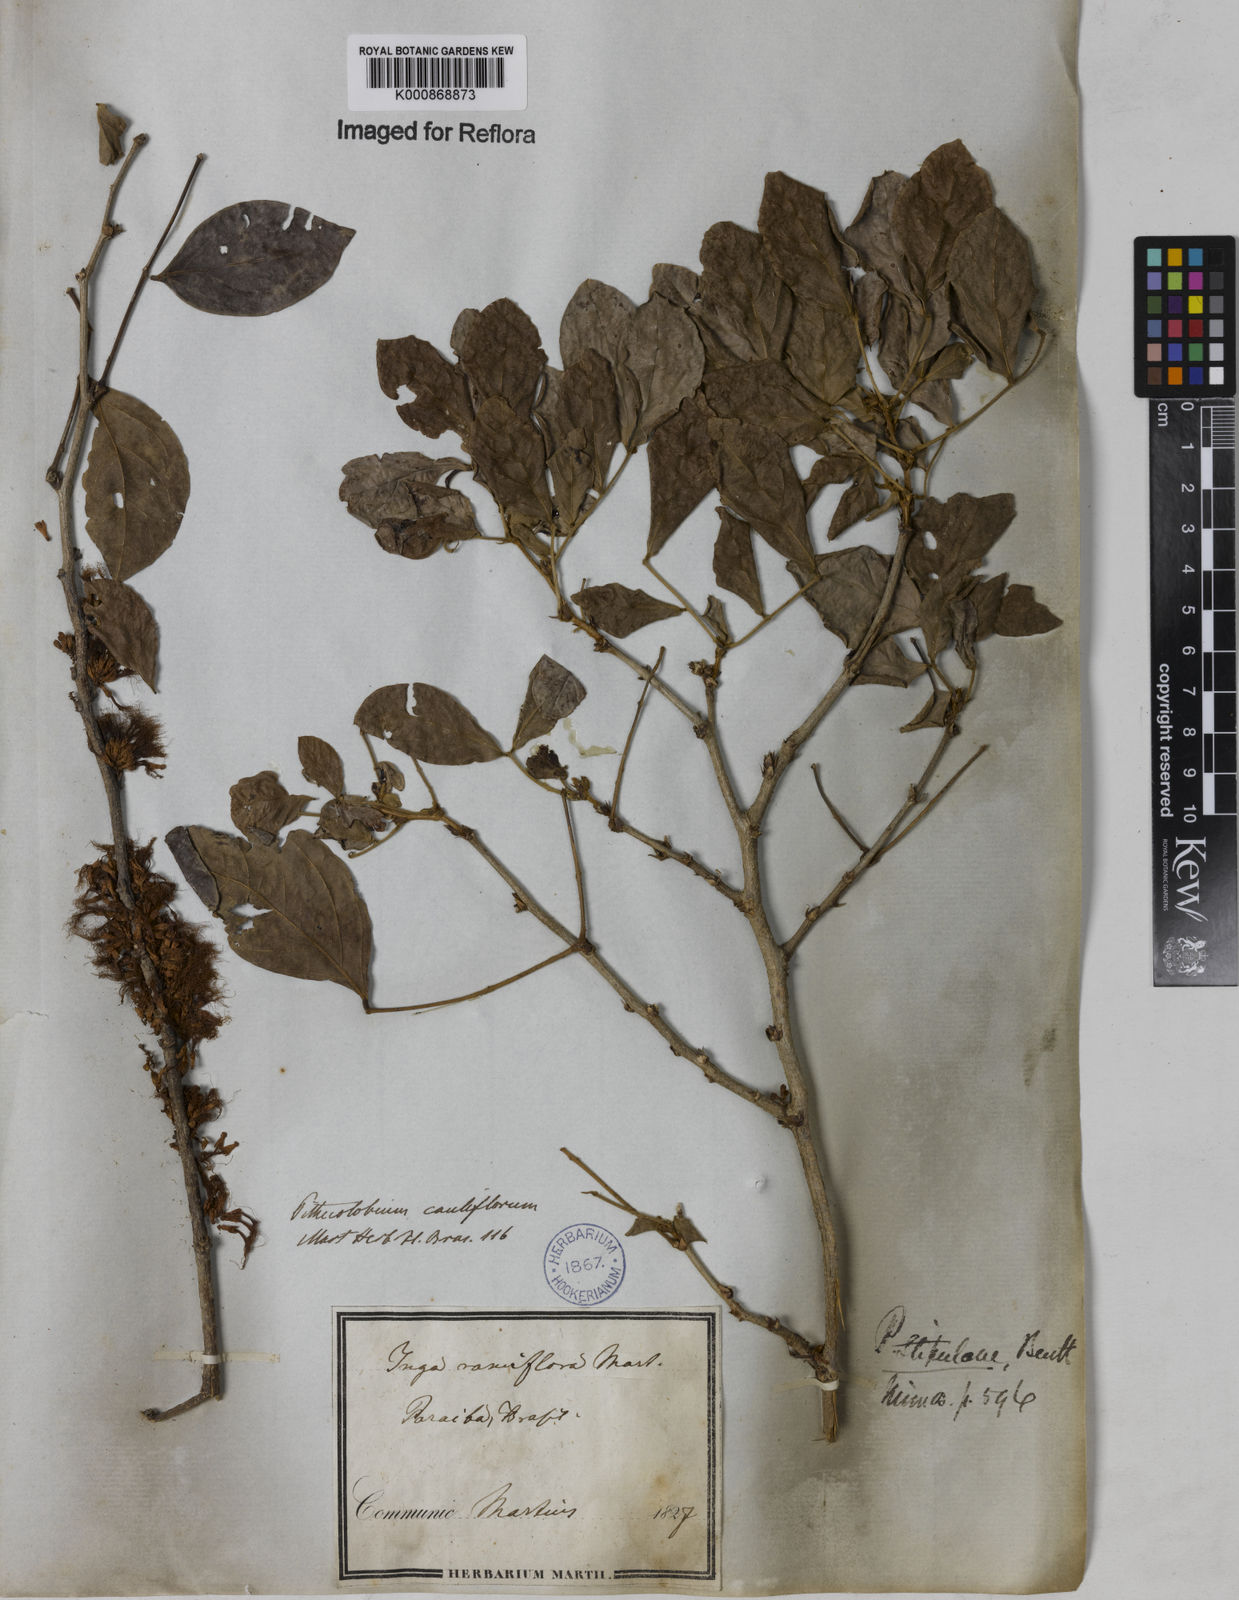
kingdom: Plantae
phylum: Tracheophyta
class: Magnoliopsida
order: Fabales
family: Fabaceae
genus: Zygia
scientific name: Zygia cauliflora
